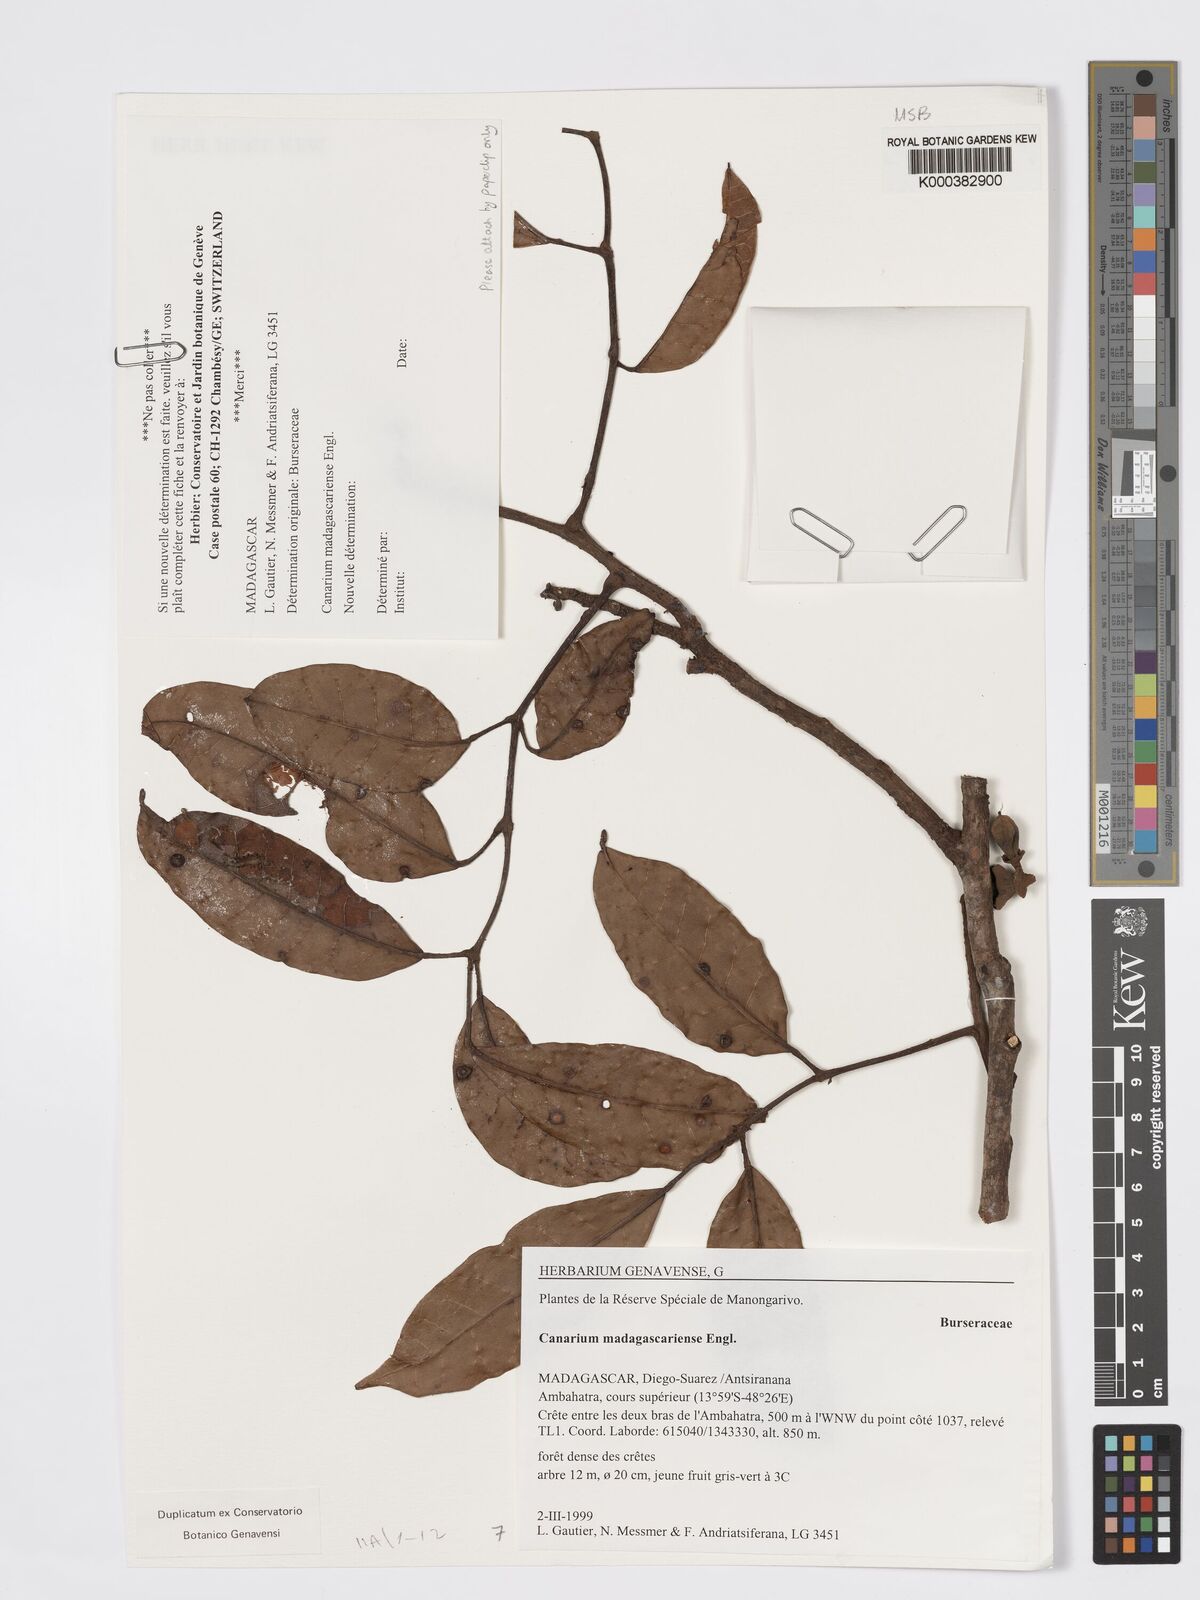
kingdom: Plantae
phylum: Tracheophyta
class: Magnoliopsida
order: Sapindales
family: Burseraceae
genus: Canarium
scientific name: Canarium madagascariense
